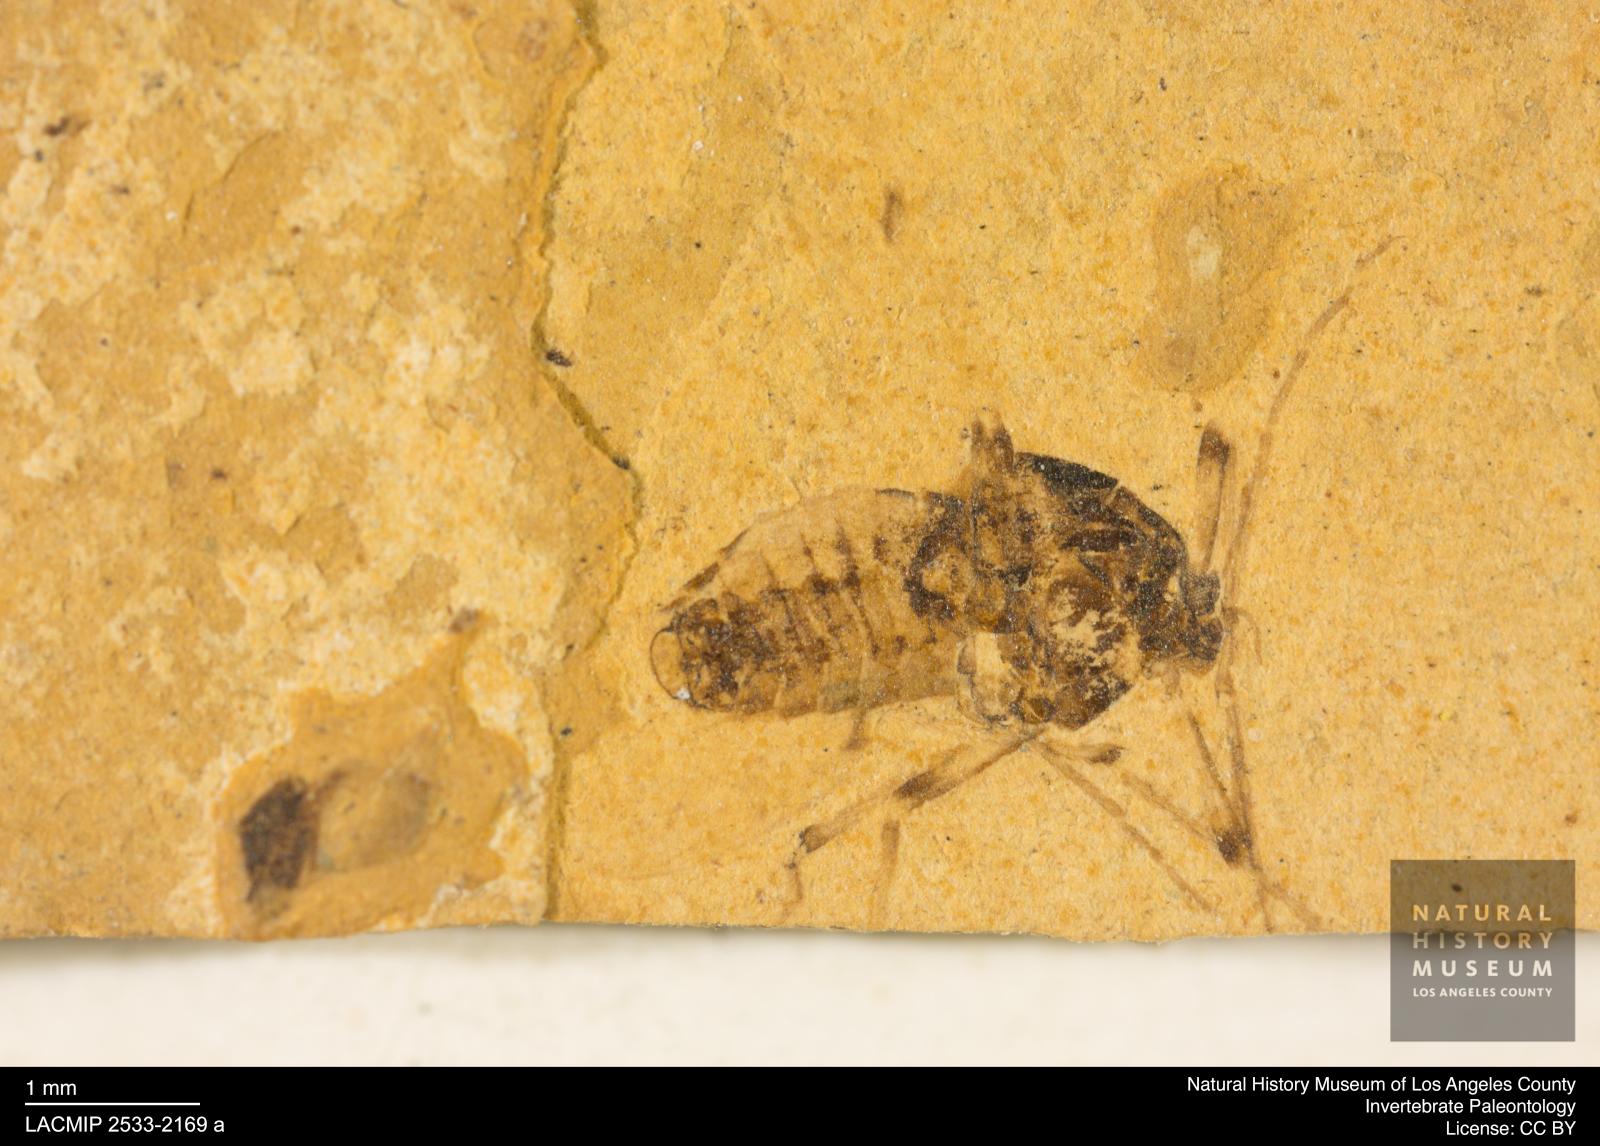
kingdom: Animalia
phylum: Arthropoda
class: Insecta
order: Diptera
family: Chironomidae
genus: Tanypus
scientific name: Tanypus dorminans
